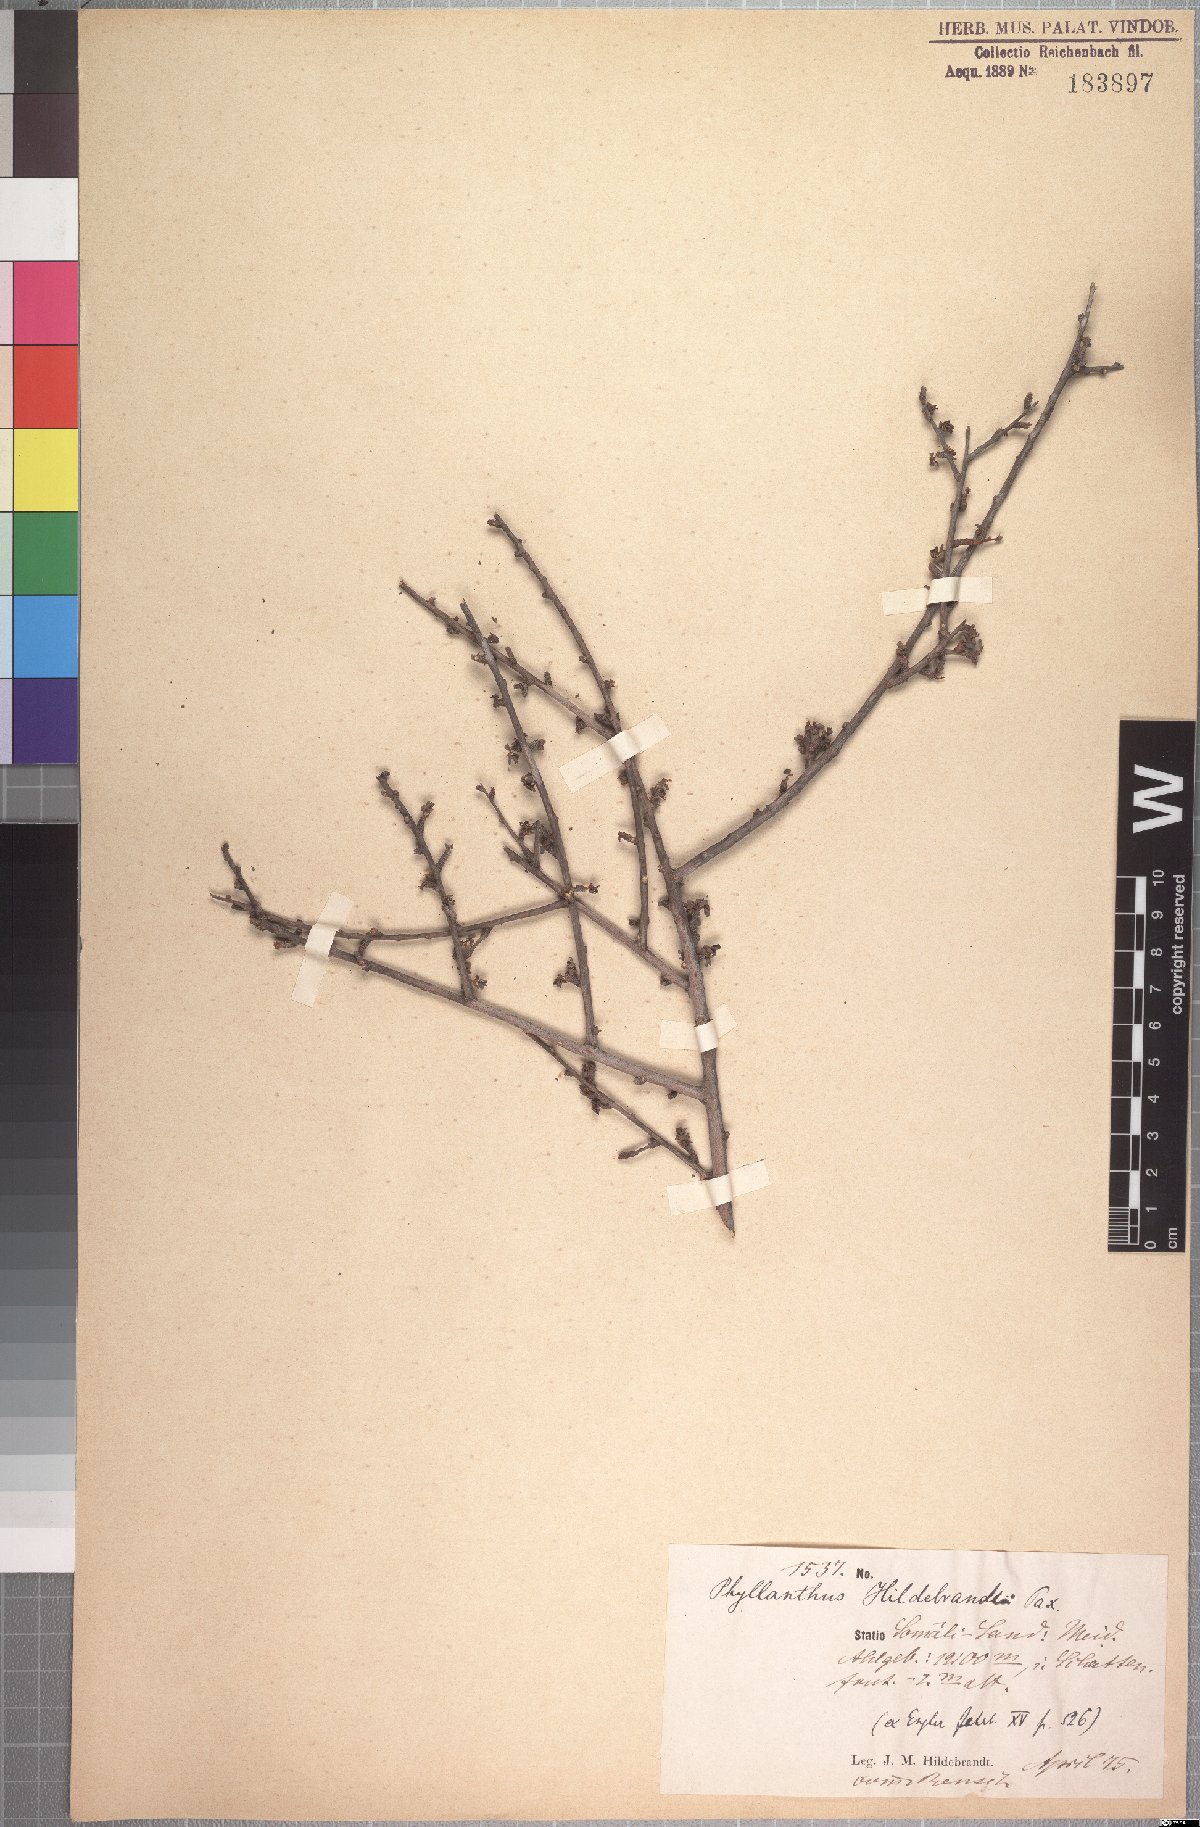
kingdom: Plantae
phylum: Tracheophyta
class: Magnoliopsida
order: Malpighiales
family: Phyllanthaceae
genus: Phyllanthus
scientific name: Phyllanthus hildebrandtii
